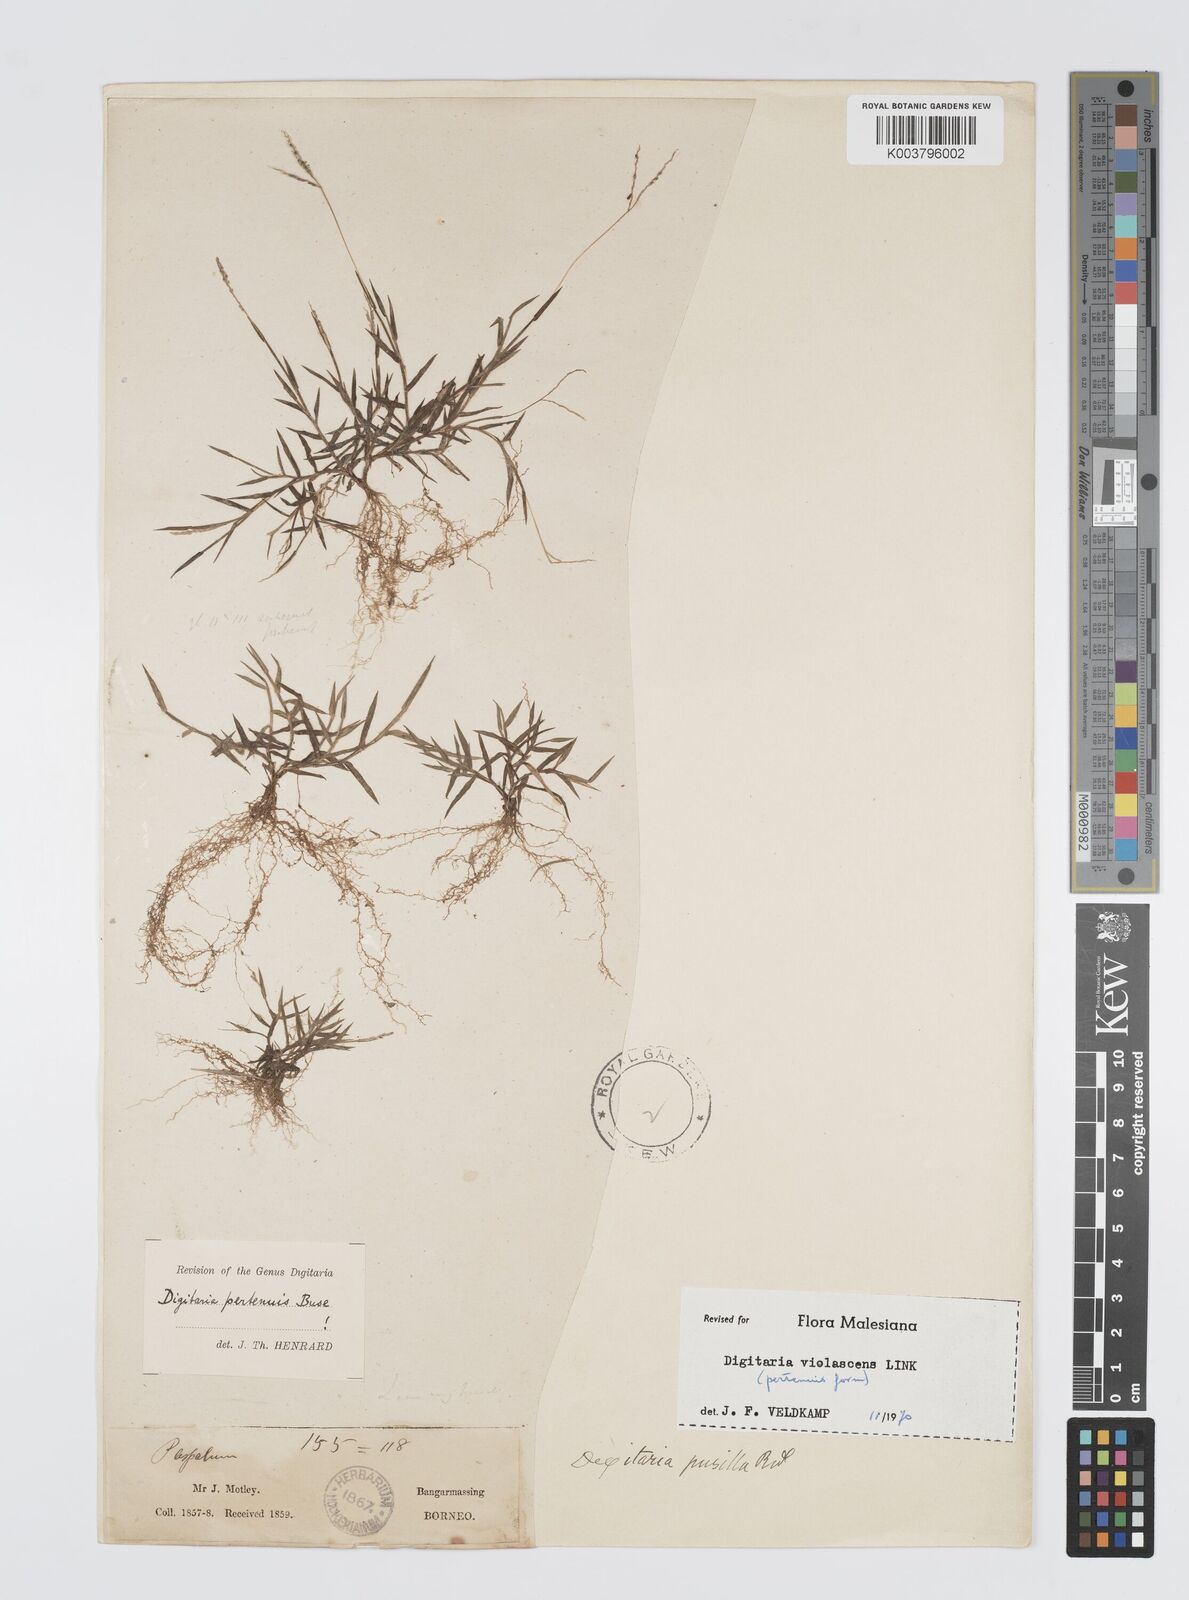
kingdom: Plantae
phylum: Tracheophyta
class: Liliopsida
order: Poales
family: Poaceae
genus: Digitaria
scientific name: Digitaria violascens
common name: Violet crabgrass
